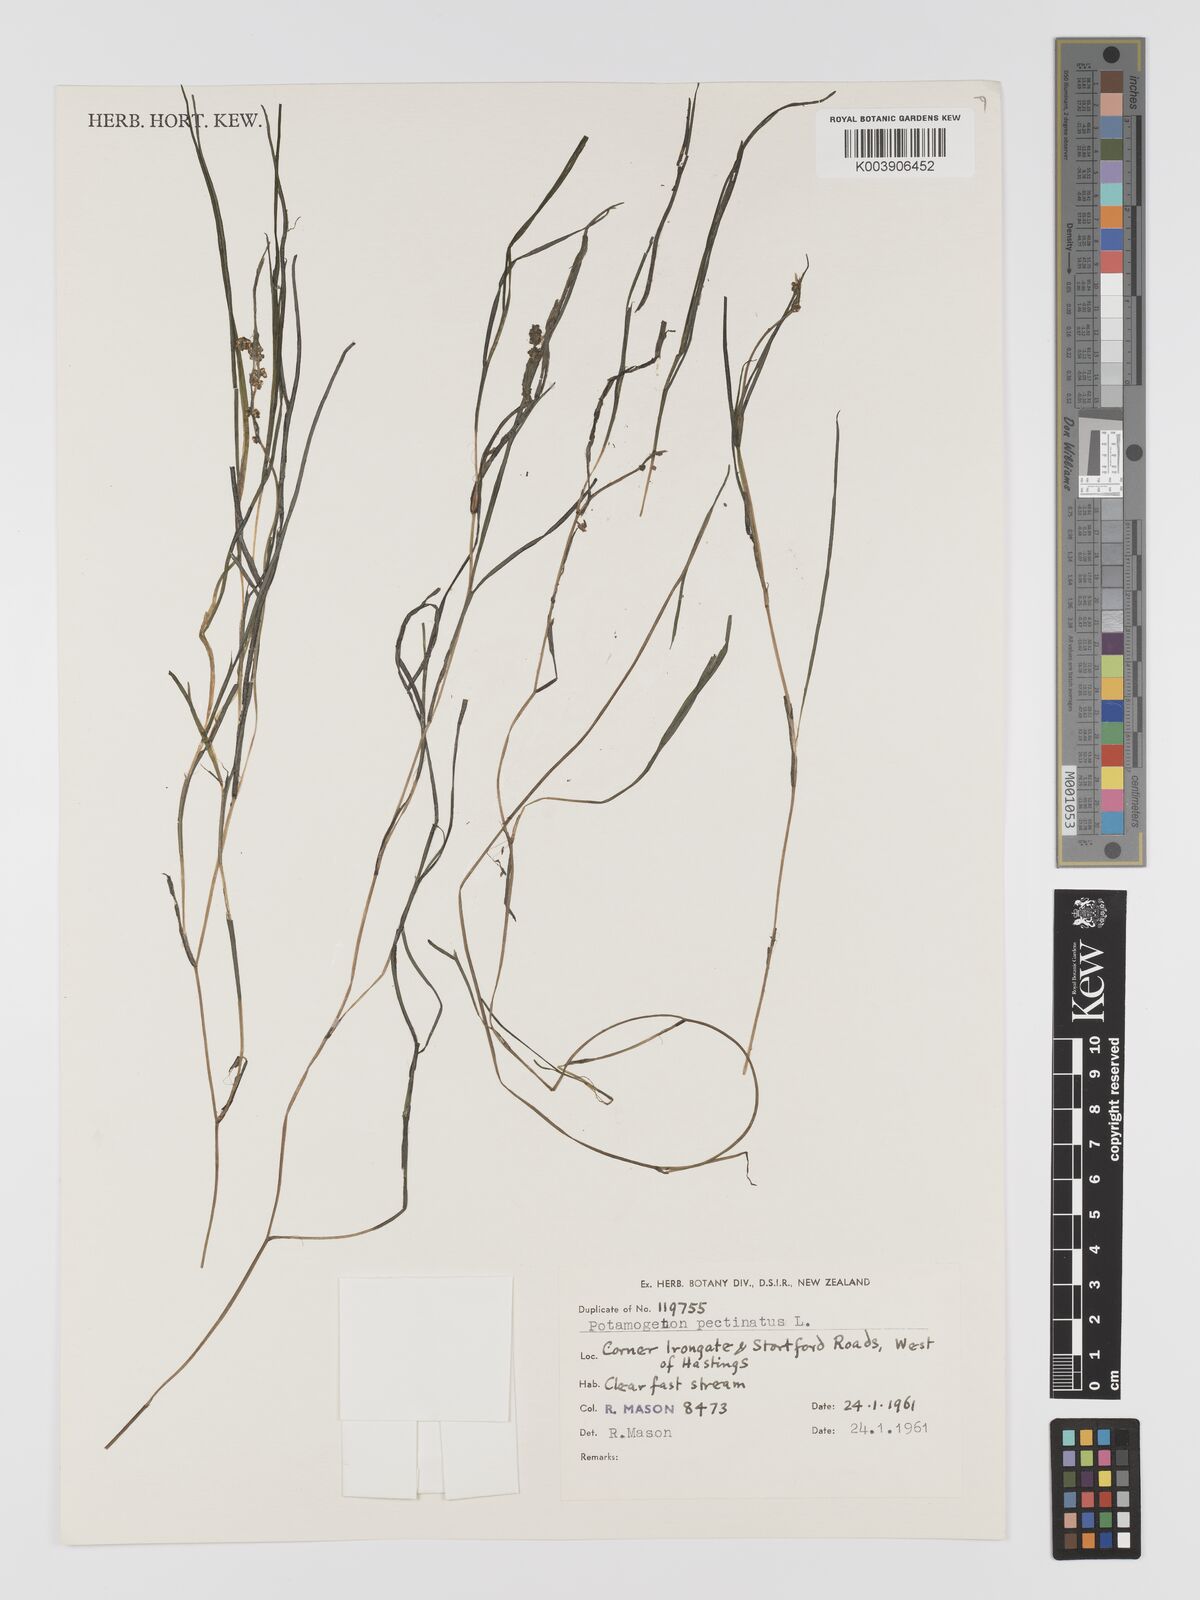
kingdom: Plantae
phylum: Tracheophyta
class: Liliopsida
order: Alismatales
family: Potamogetonaceae
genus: Stuckenia
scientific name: Stuckenia pectinata
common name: Sago pondweed
